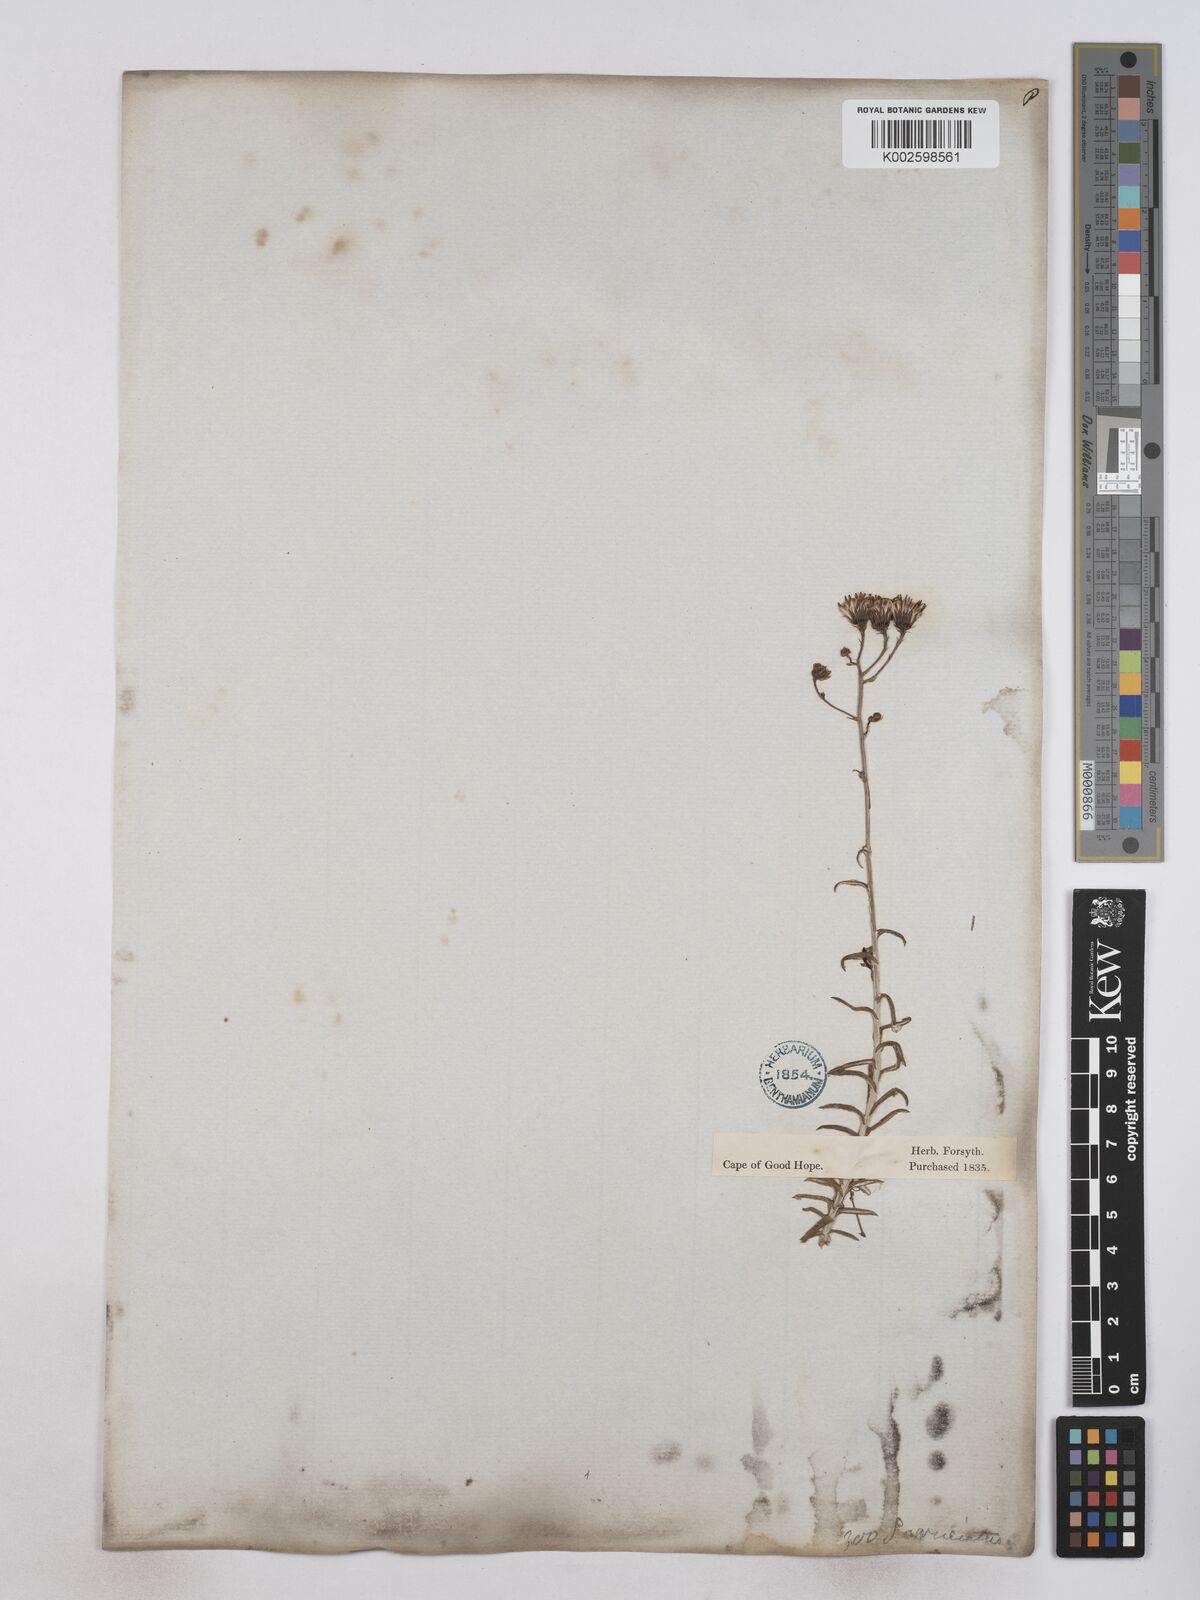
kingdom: Plantae
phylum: Tracheophyta
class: Magnoliopsida
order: Asterales
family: Asteraceae
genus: Senecio
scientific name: Senecio juniperinus
